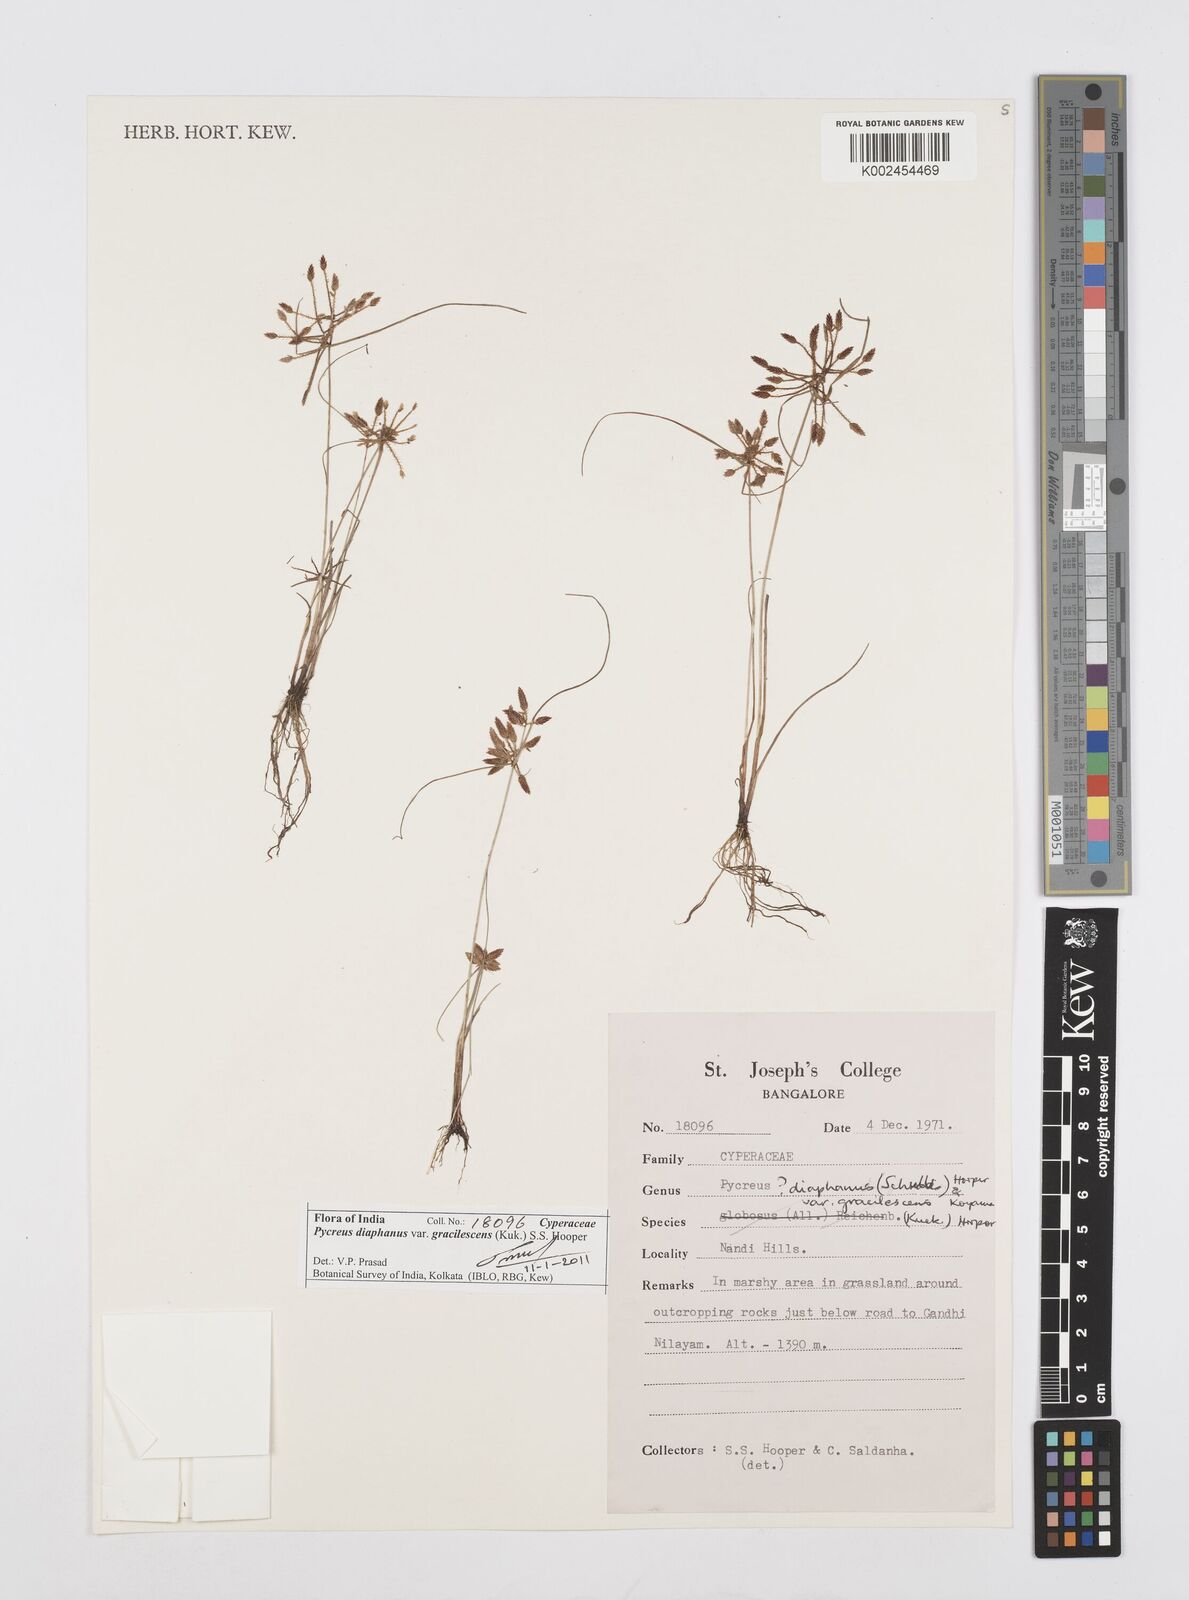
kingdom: Plantae
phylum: Tracheophyta
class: Liliopsida
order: Poales
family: Cyperaceae
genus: Cyperus
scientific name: Cyperus diaphanus
